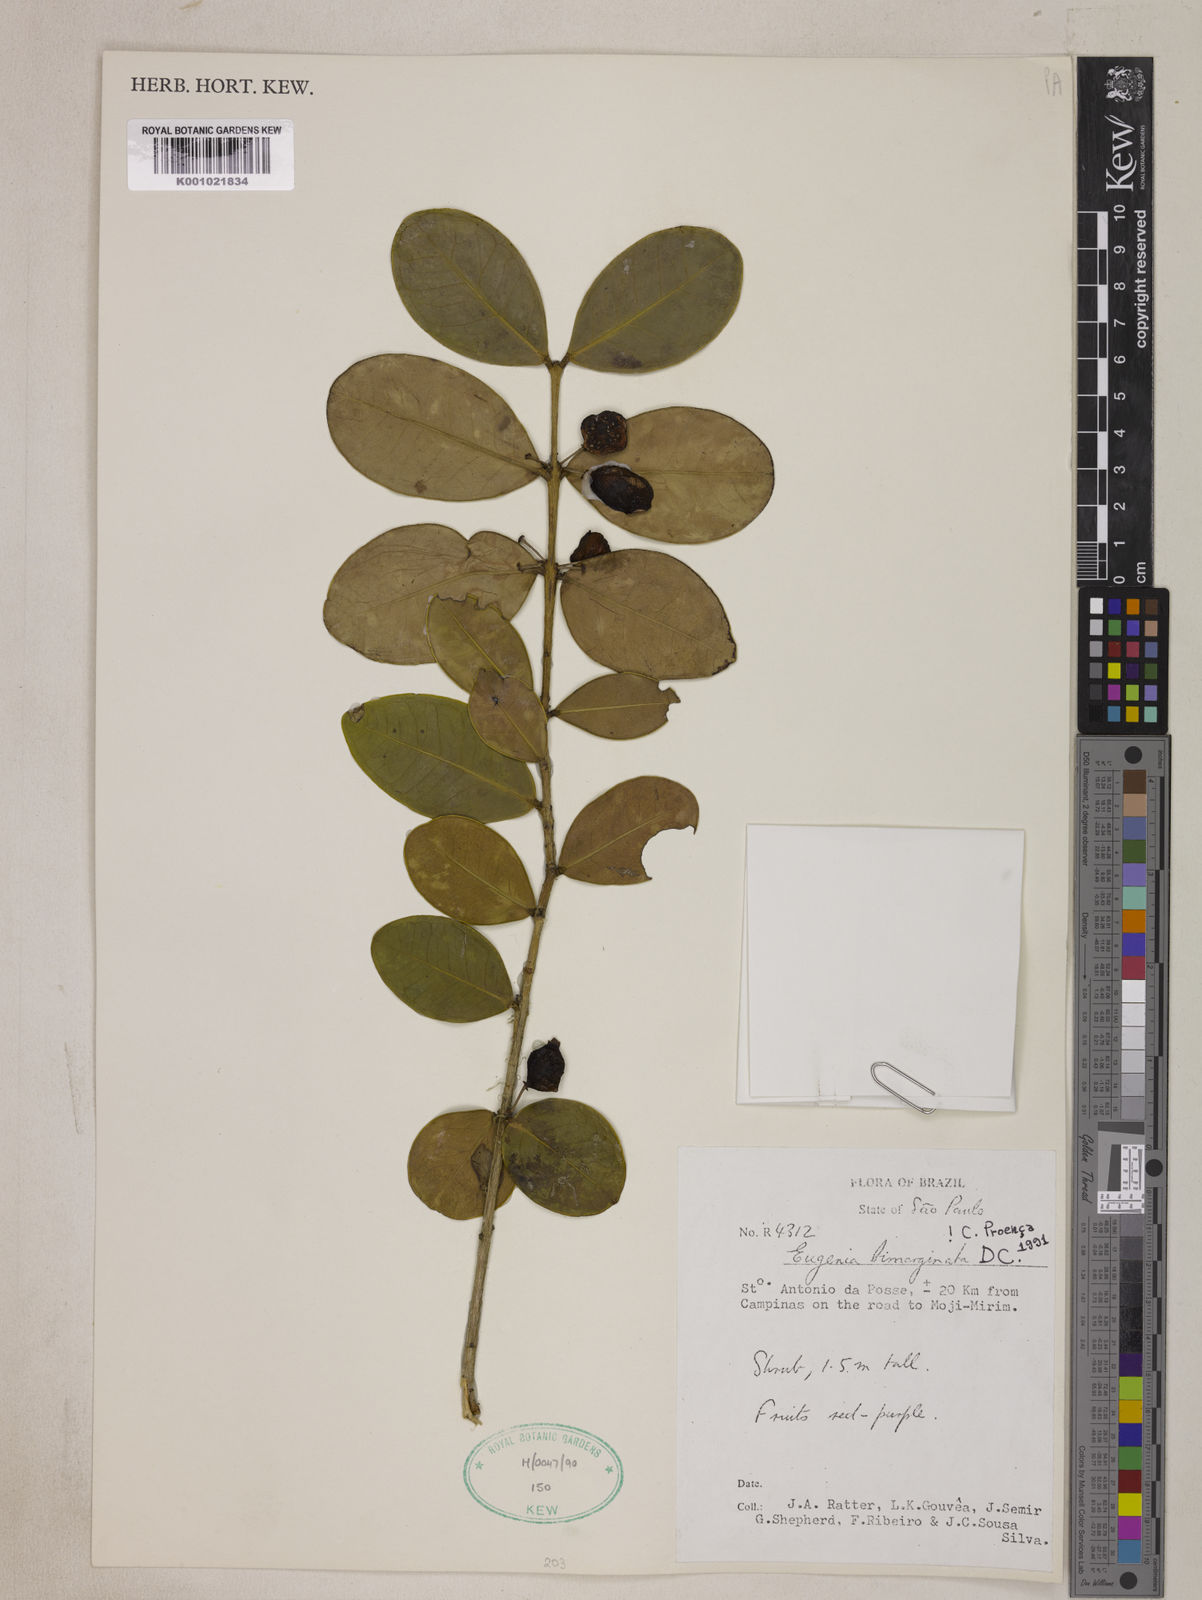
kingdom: Plantae
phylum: Tracheophyta
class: Magnoliopsida
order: Myrtales
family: Myrtaceae
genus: Eugenia
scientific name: Eugenia bimarginata
